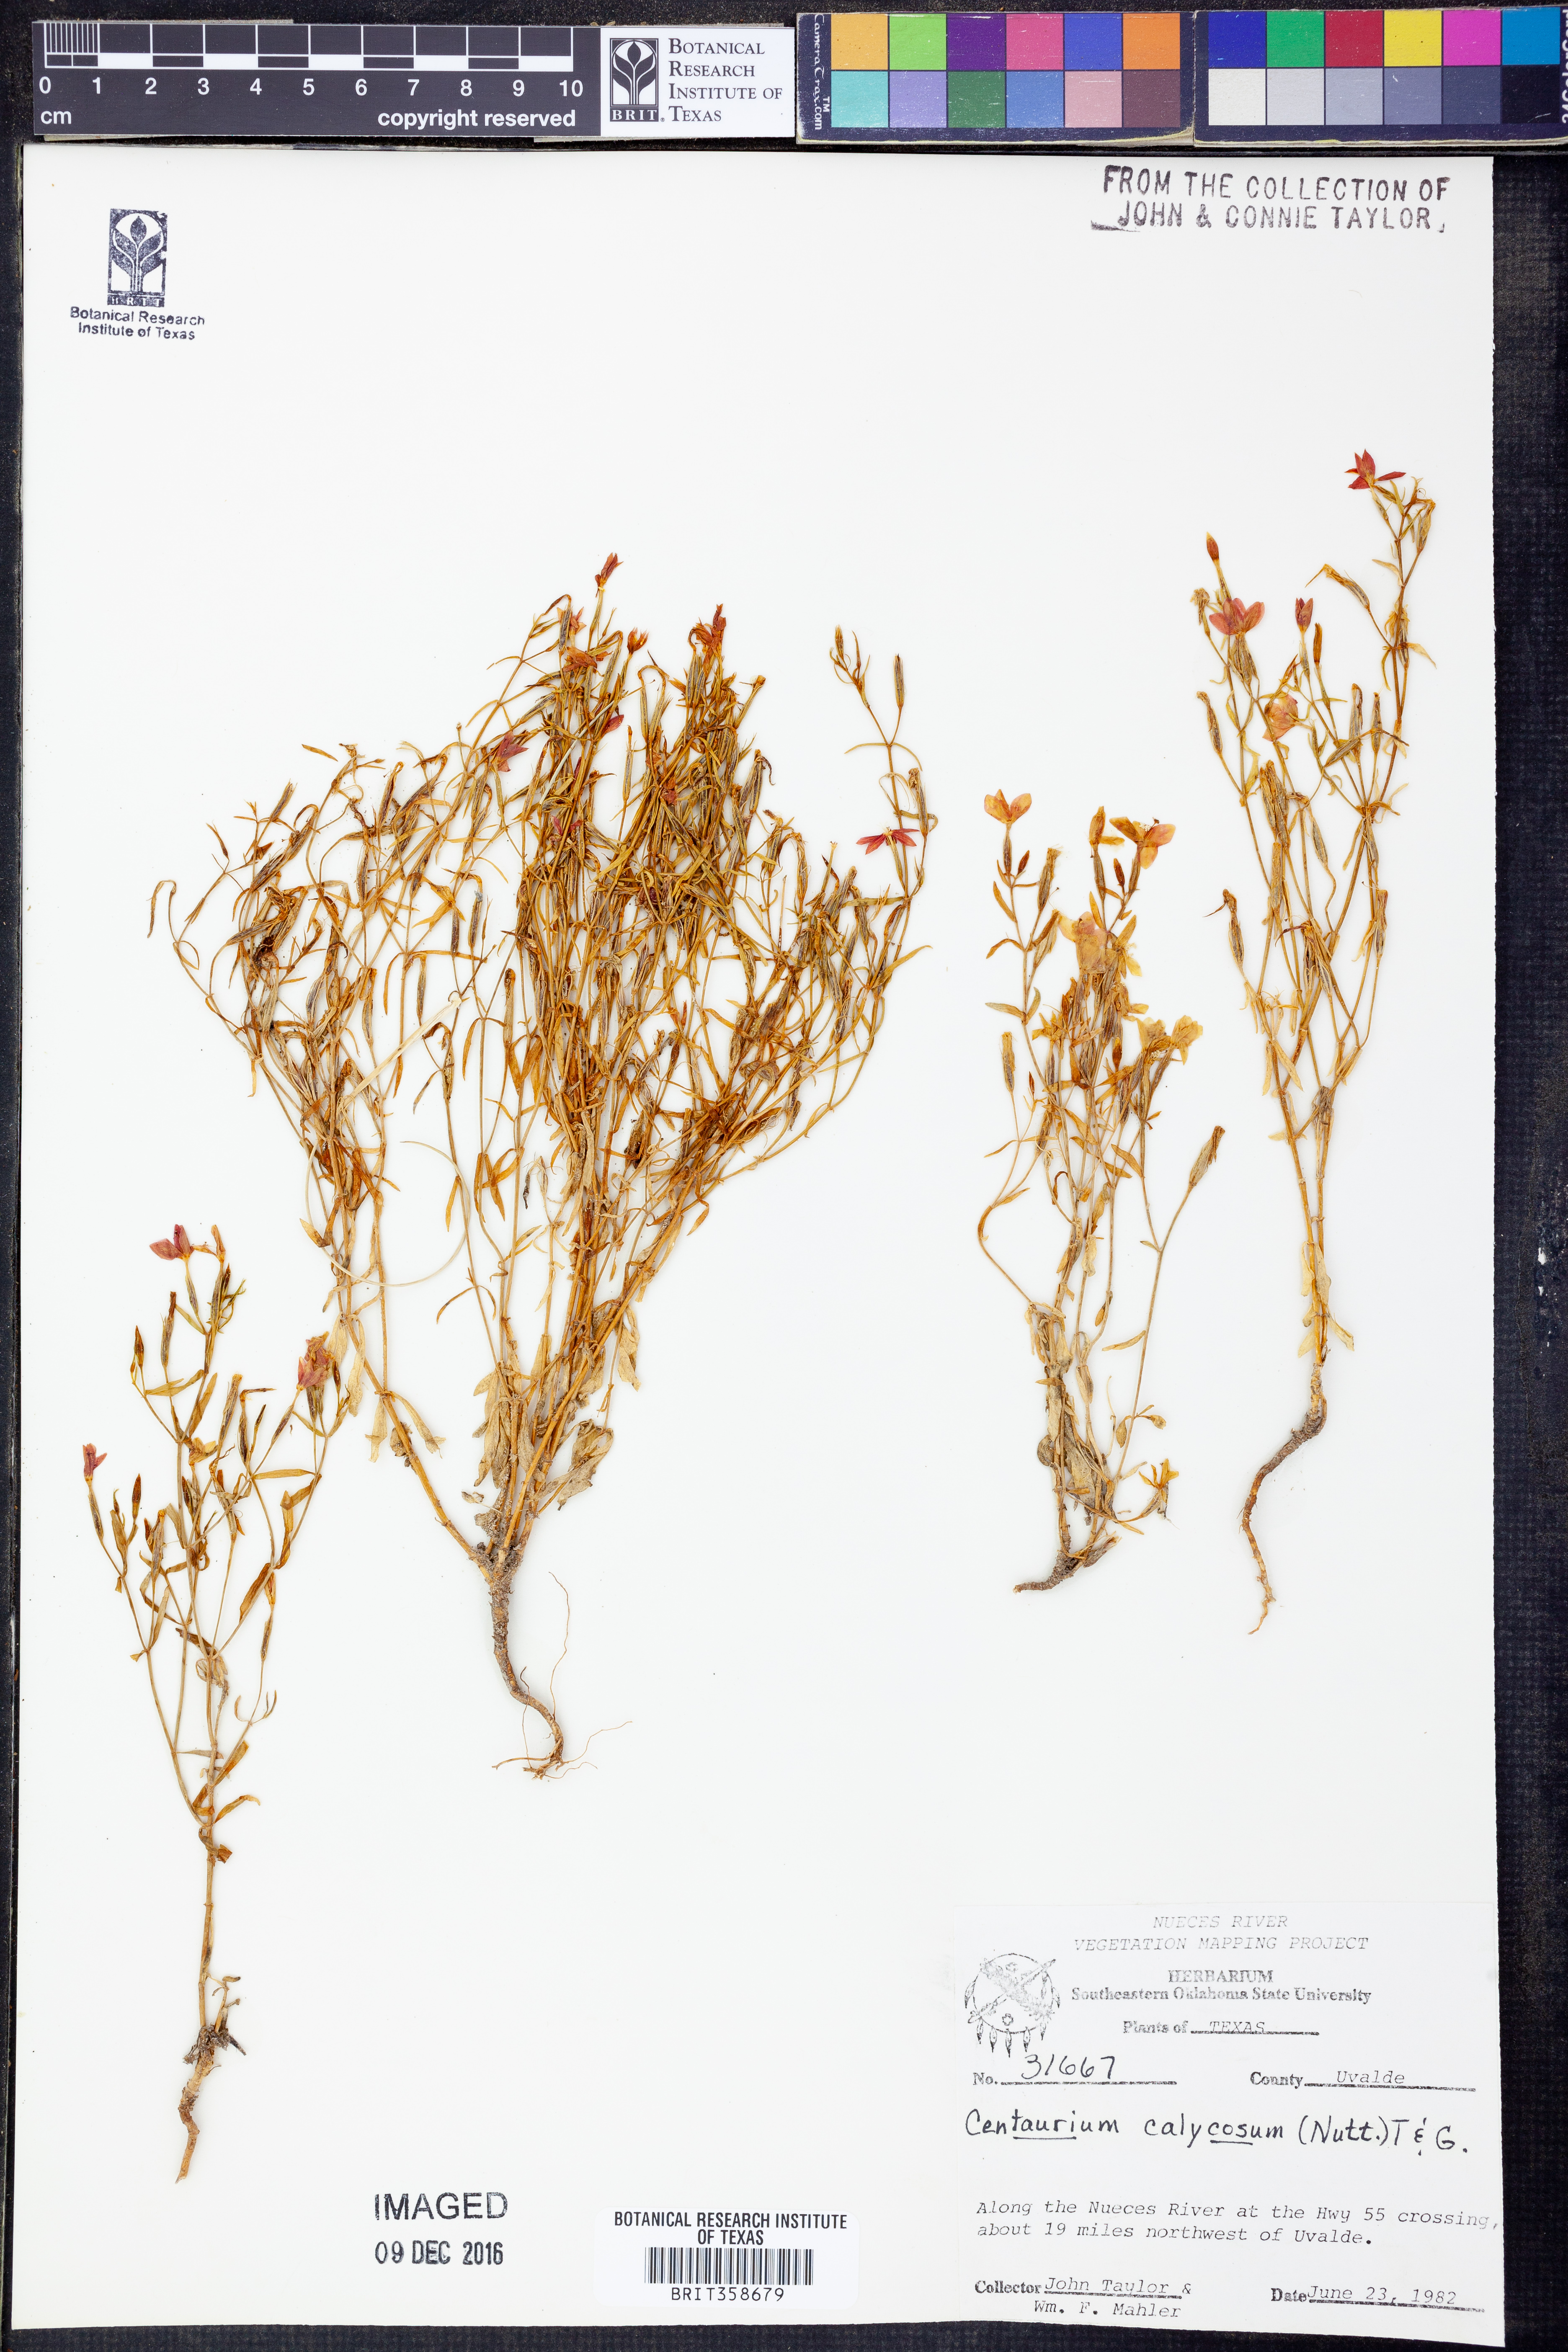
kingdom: Plantae
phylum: Tracheophyta
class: Magnoliopsida
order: Gentianales
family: Gentianaceae
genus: Zeltnera
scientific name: Zeltnera calycosa
